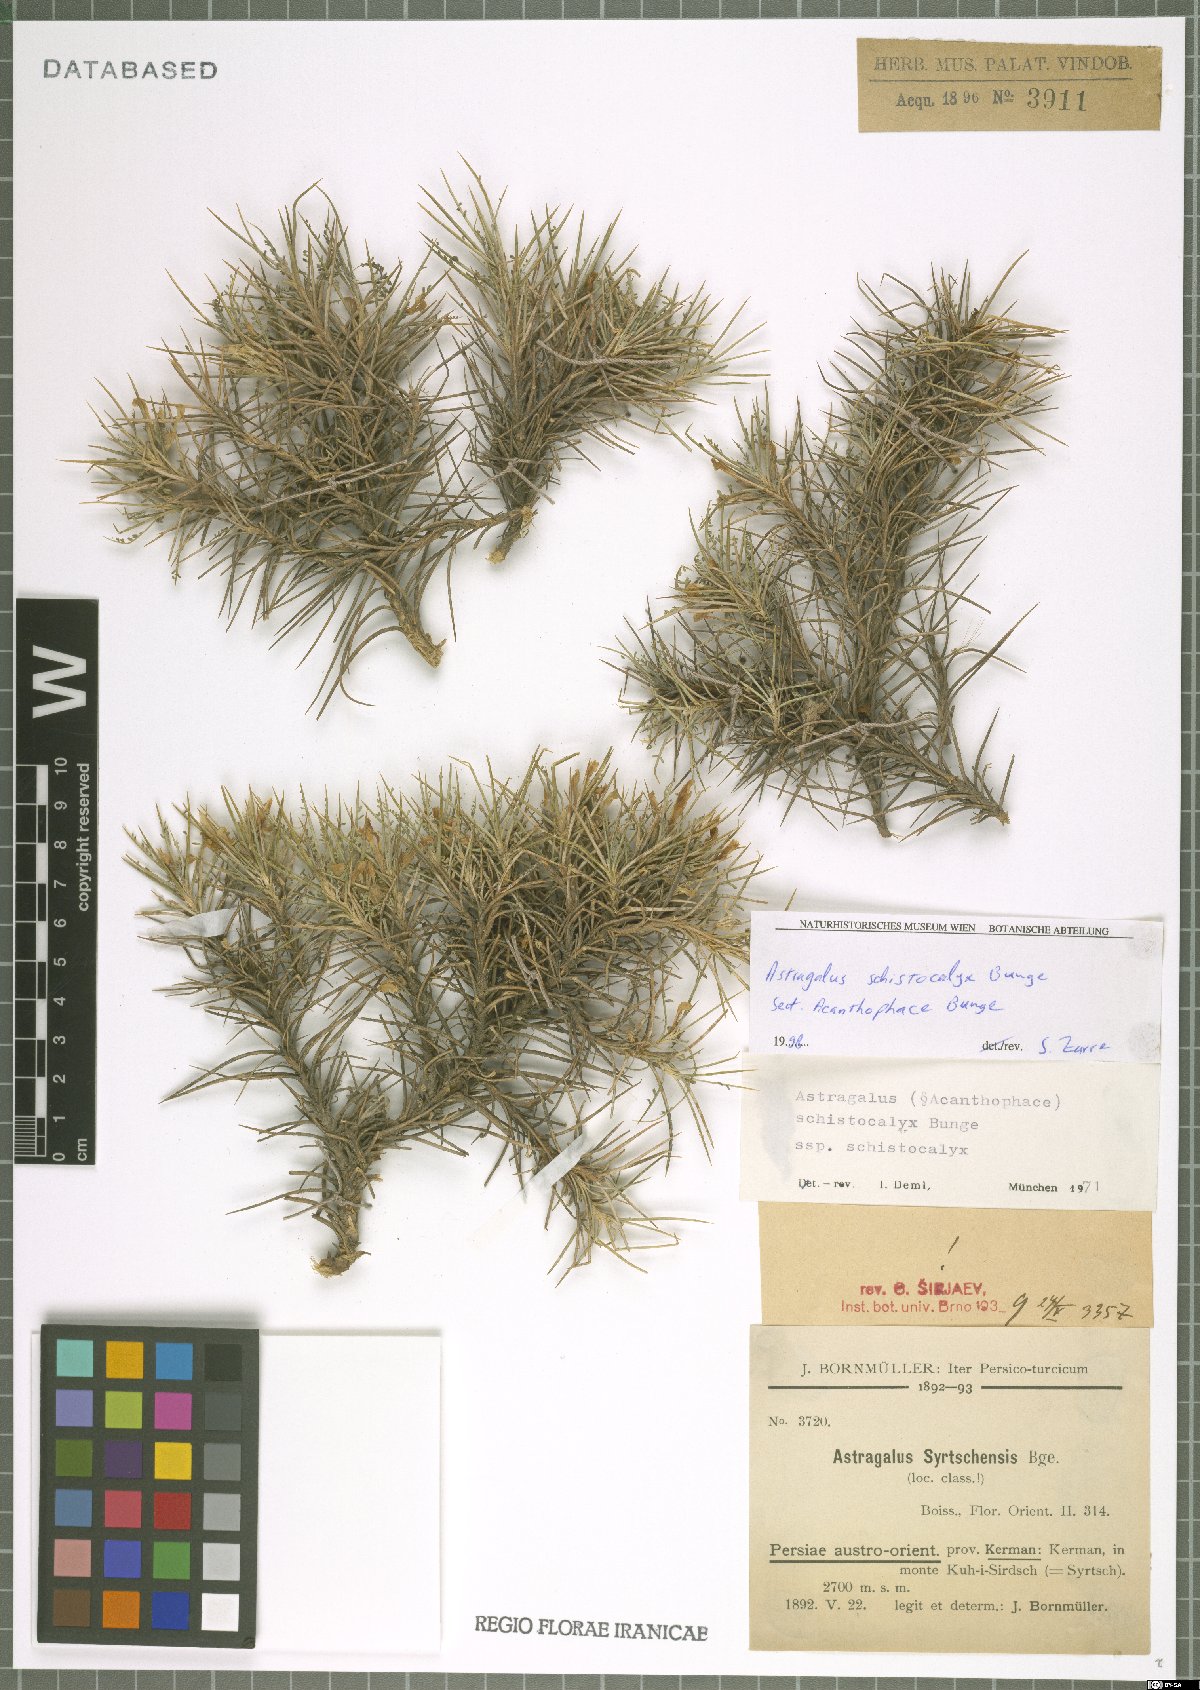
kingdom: Plantae
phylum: Tracheophyta
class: Magnoliopsida
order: Fabales
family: Fabaceae
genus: Astragalus
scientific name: Astragalus lycioides
